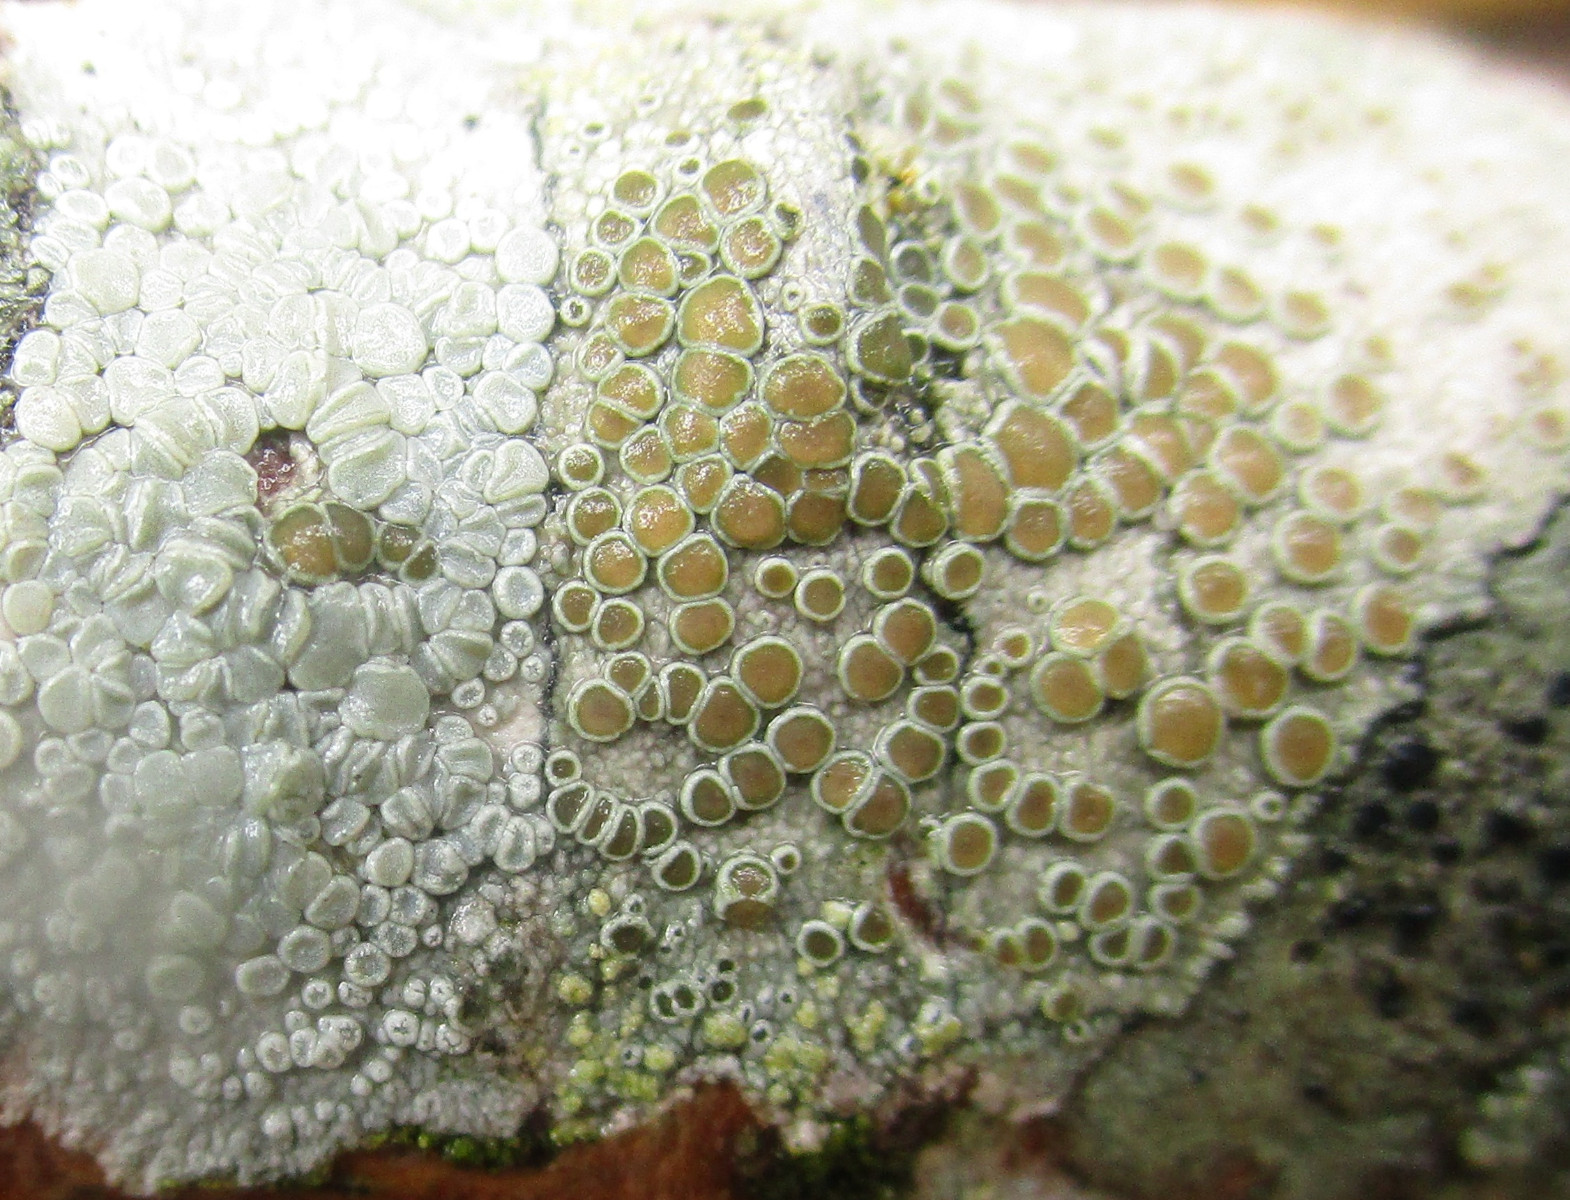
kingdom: Fungi
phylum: Ascomycota
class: Lecanoromycetes
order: Lecanorales
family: Lecanoraceae
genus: Glaucomaria
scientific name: Glaucomaria carpinea
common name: hviddugget kantskivelav
